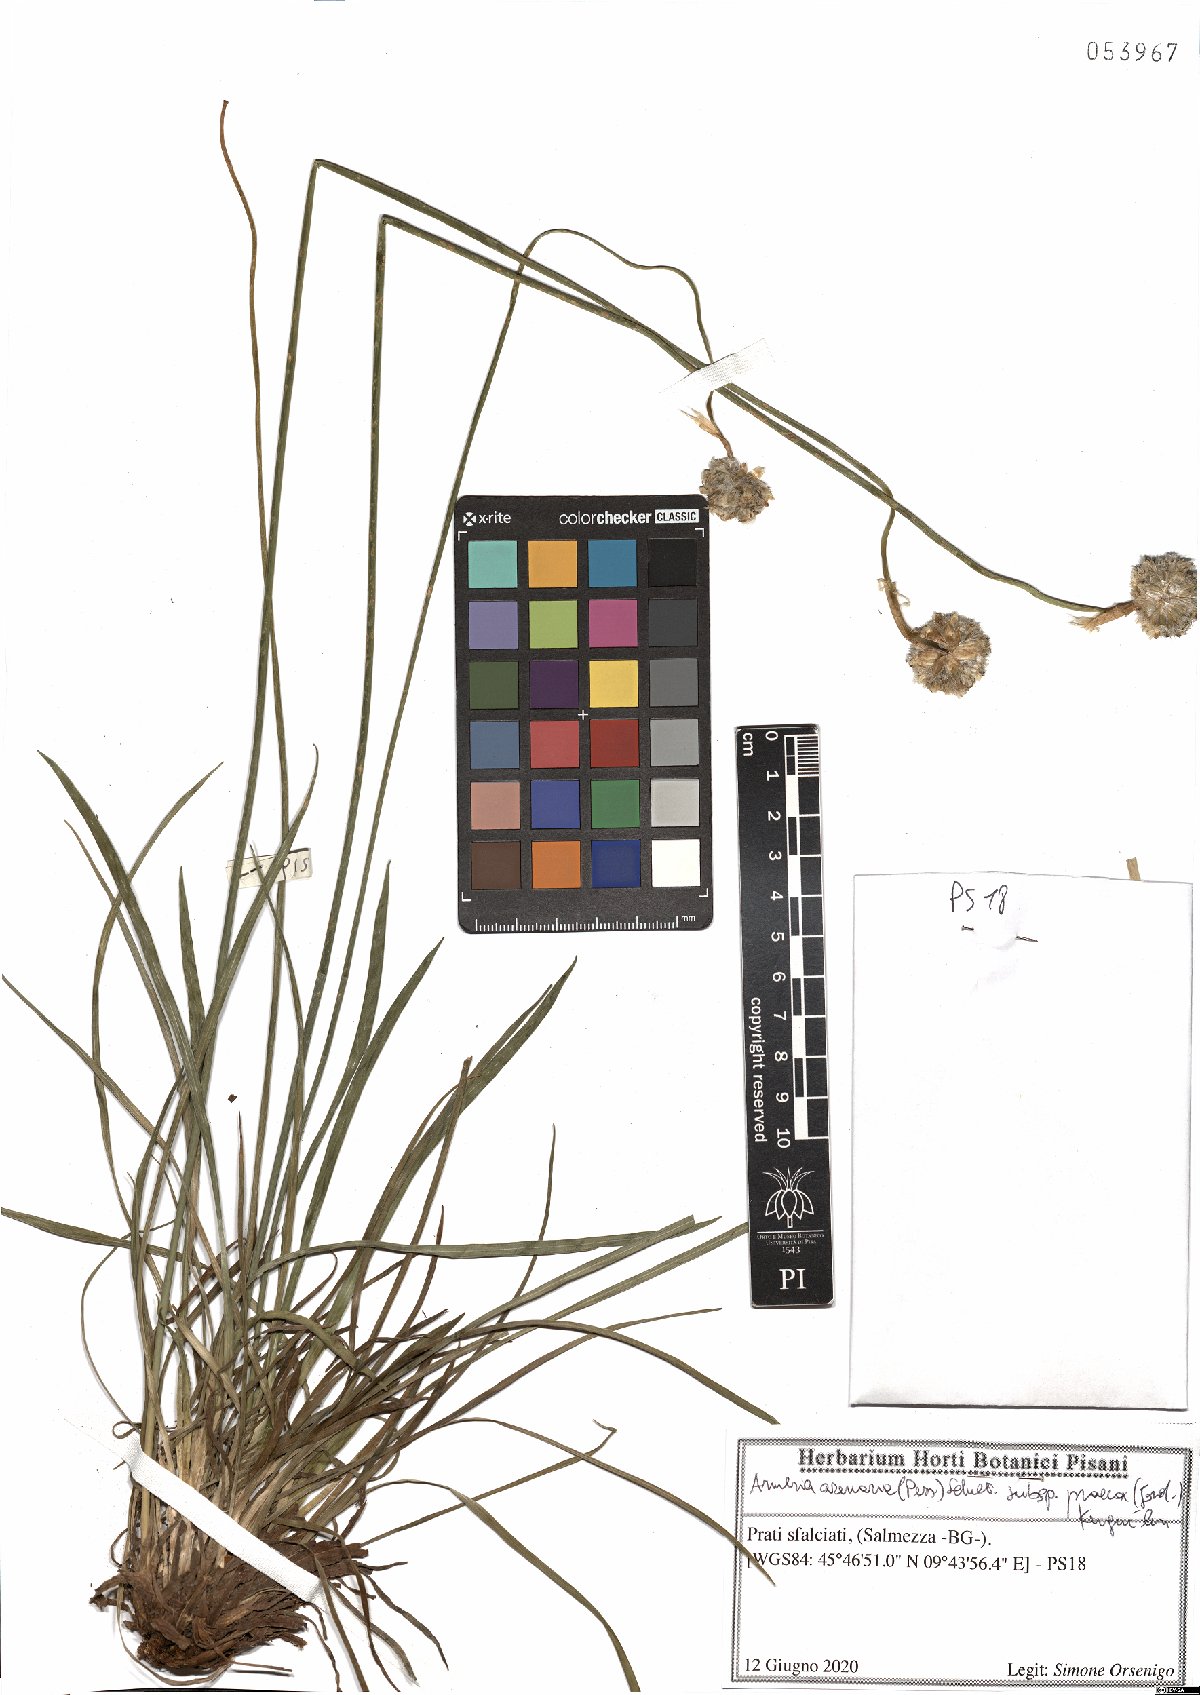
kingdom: Plantae
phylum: Tracheophyta
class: Magnoliopsida
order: Caryophyllales
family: Plumbaginaceae
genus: Armeria
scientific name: Armeria arenaria
